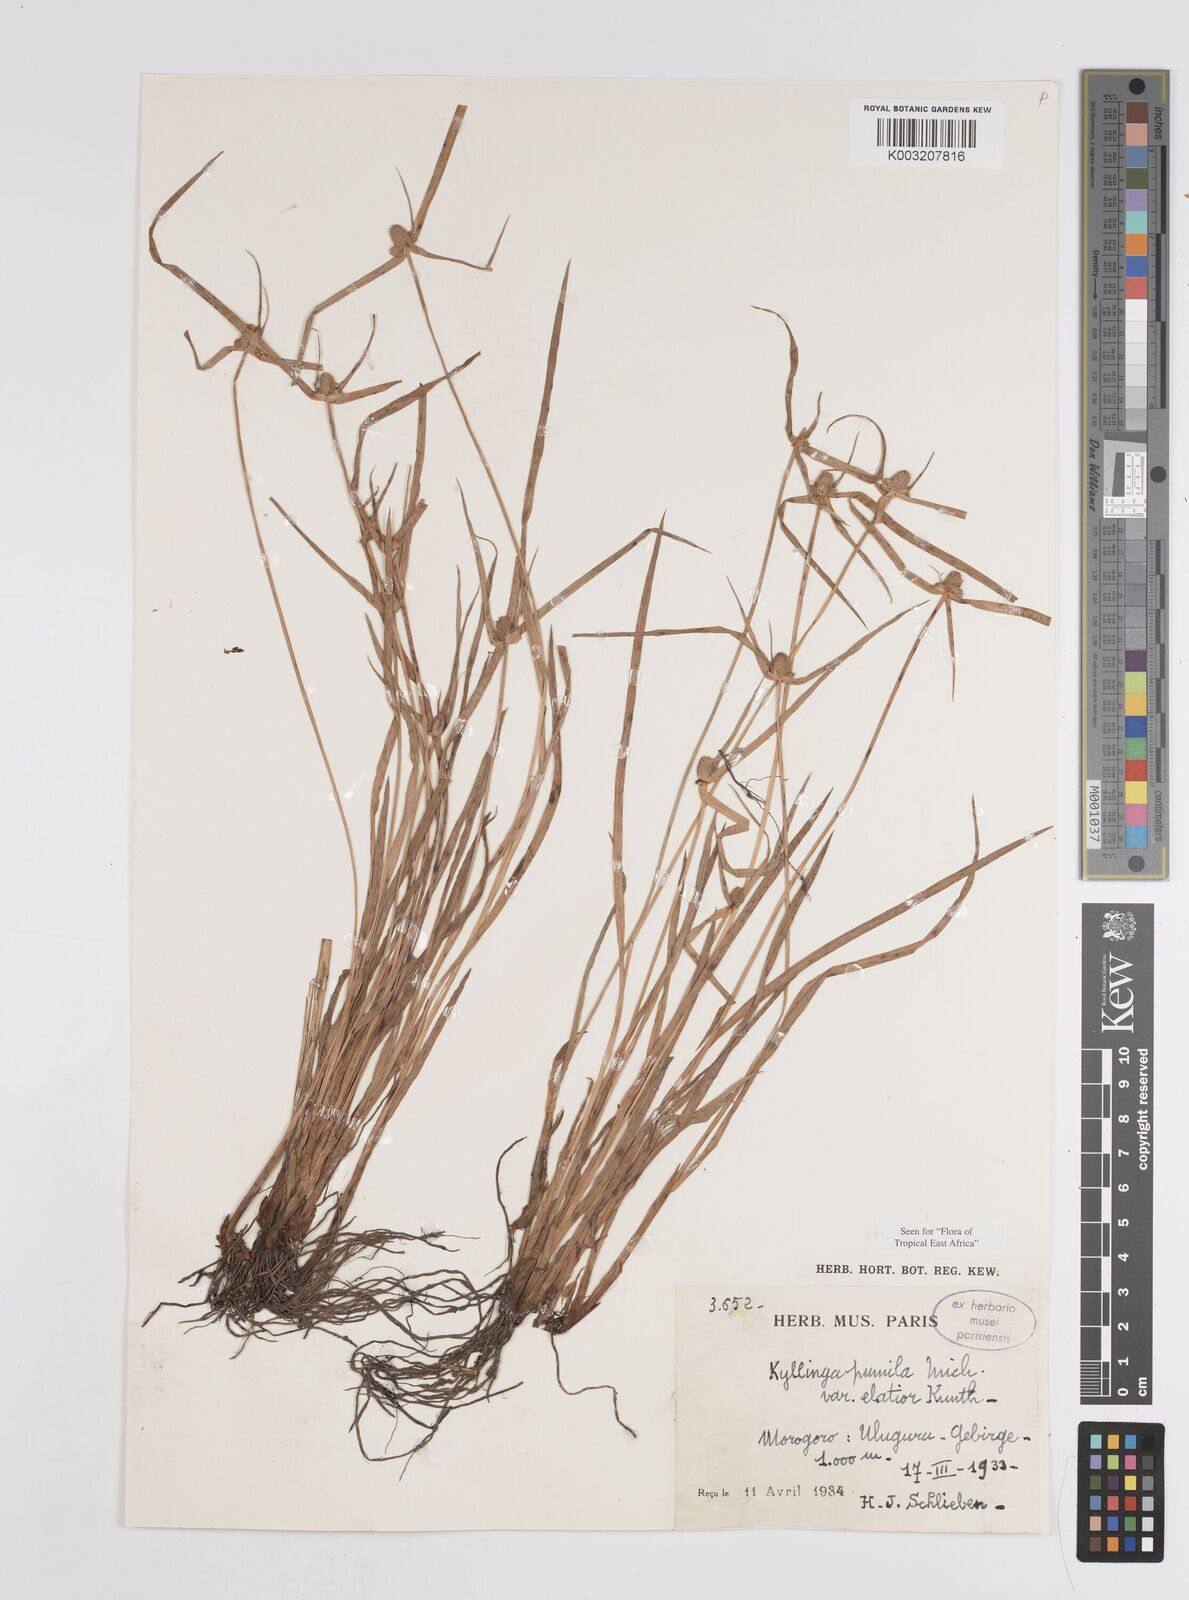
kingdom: Plantae
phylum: Tracheophyta
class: Liliopsida
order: Poales
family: Cyperaceae
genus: Cyperus
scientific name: Cyperus hortensis
